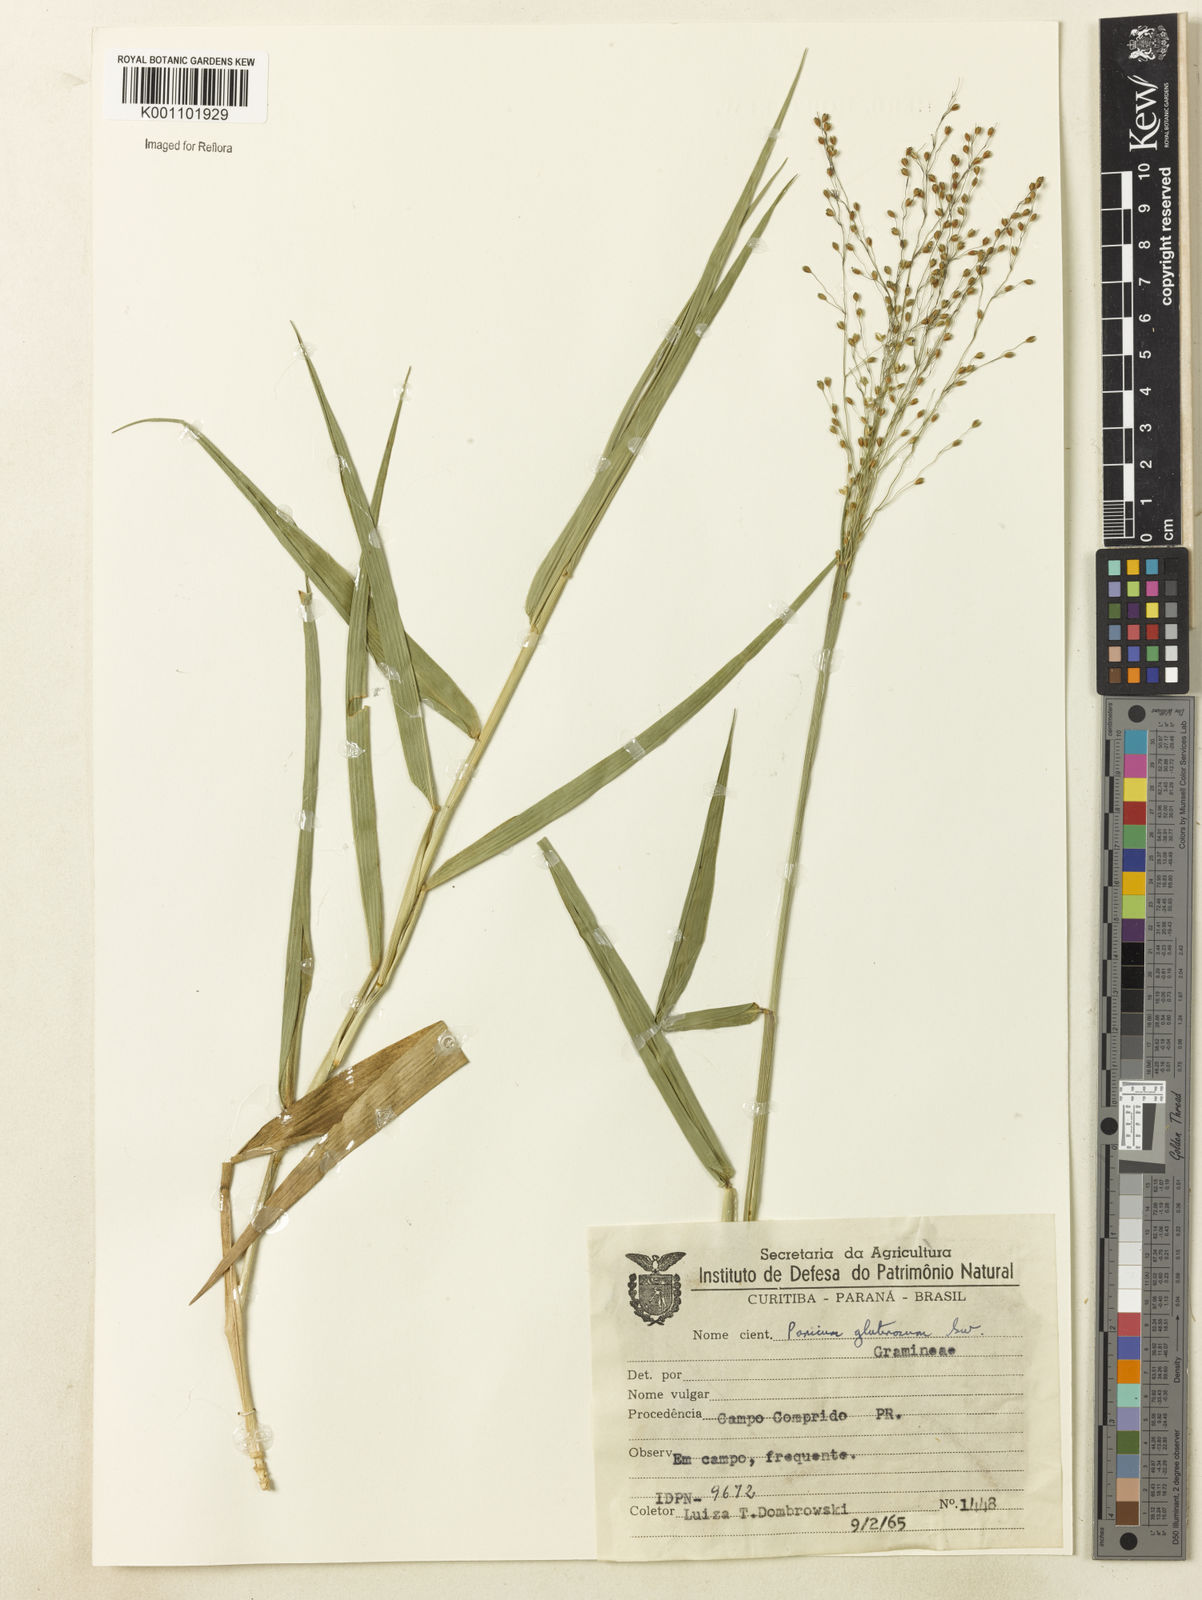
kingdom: Plantae
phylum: Tracheophyta
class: Liliopsida
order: Poales
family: Poaceae
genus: Homolepis
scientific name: Homolepis glutinosa
